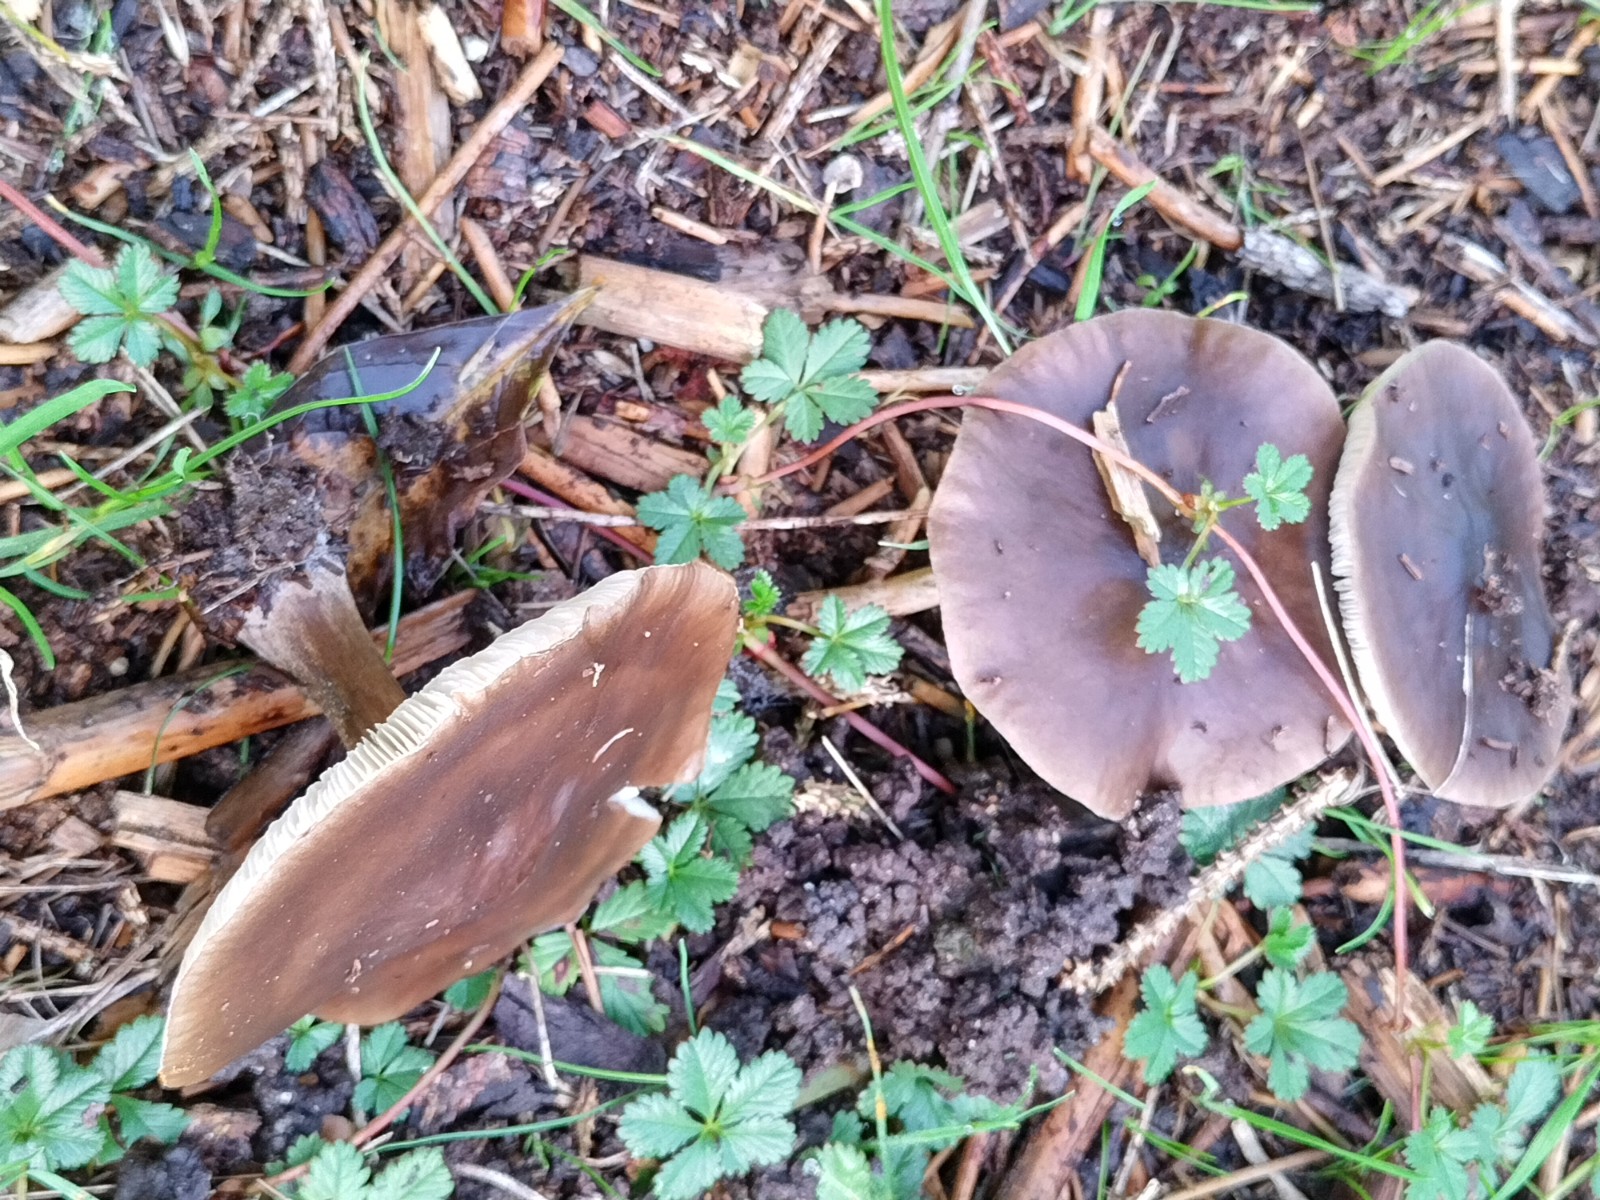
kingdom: Fungi
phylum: Basidiomycota
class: Agaricomycetes
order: Agaricales
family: Tricholomataceae
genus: Melanoleuca
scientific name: Melanoleuca
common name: munkehat
